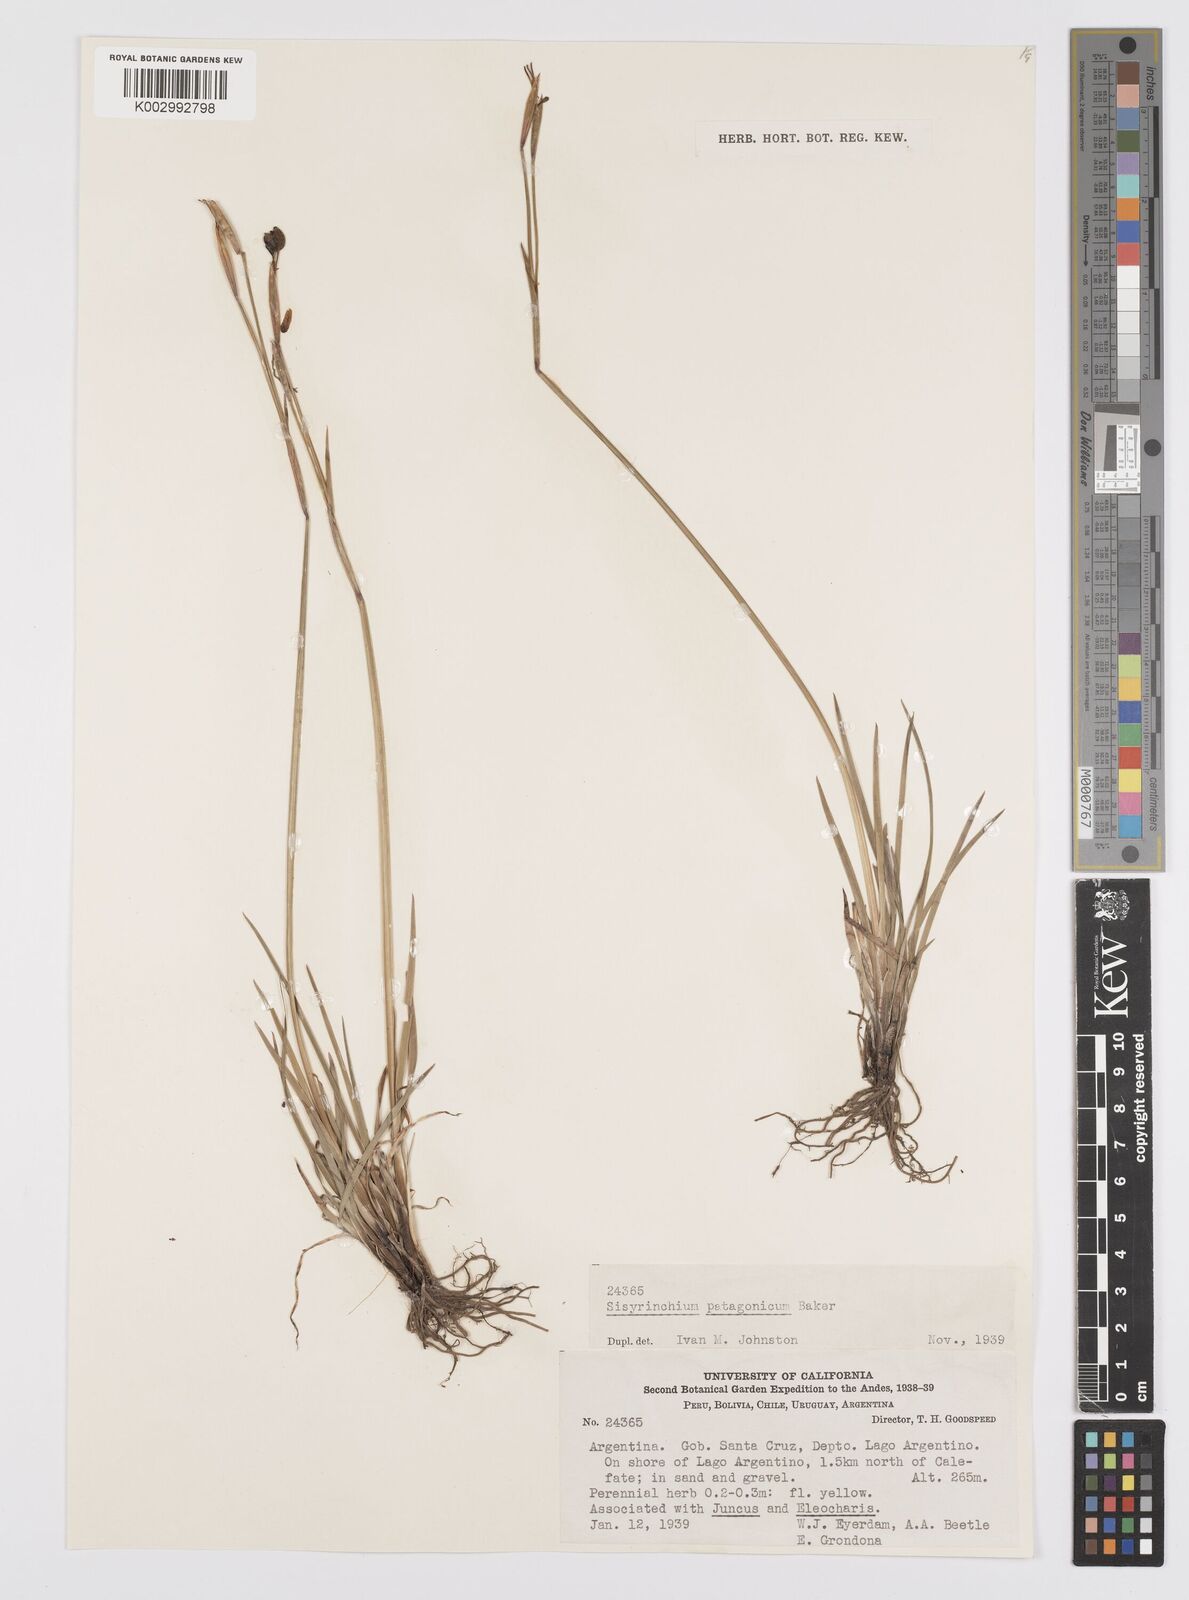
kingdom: Plantae
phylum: Tracheophyta
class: Liliopsida
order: Asparagales
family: Iridaceae
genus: Sisyrinchium
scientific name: Sisyrinchium patagonicum
